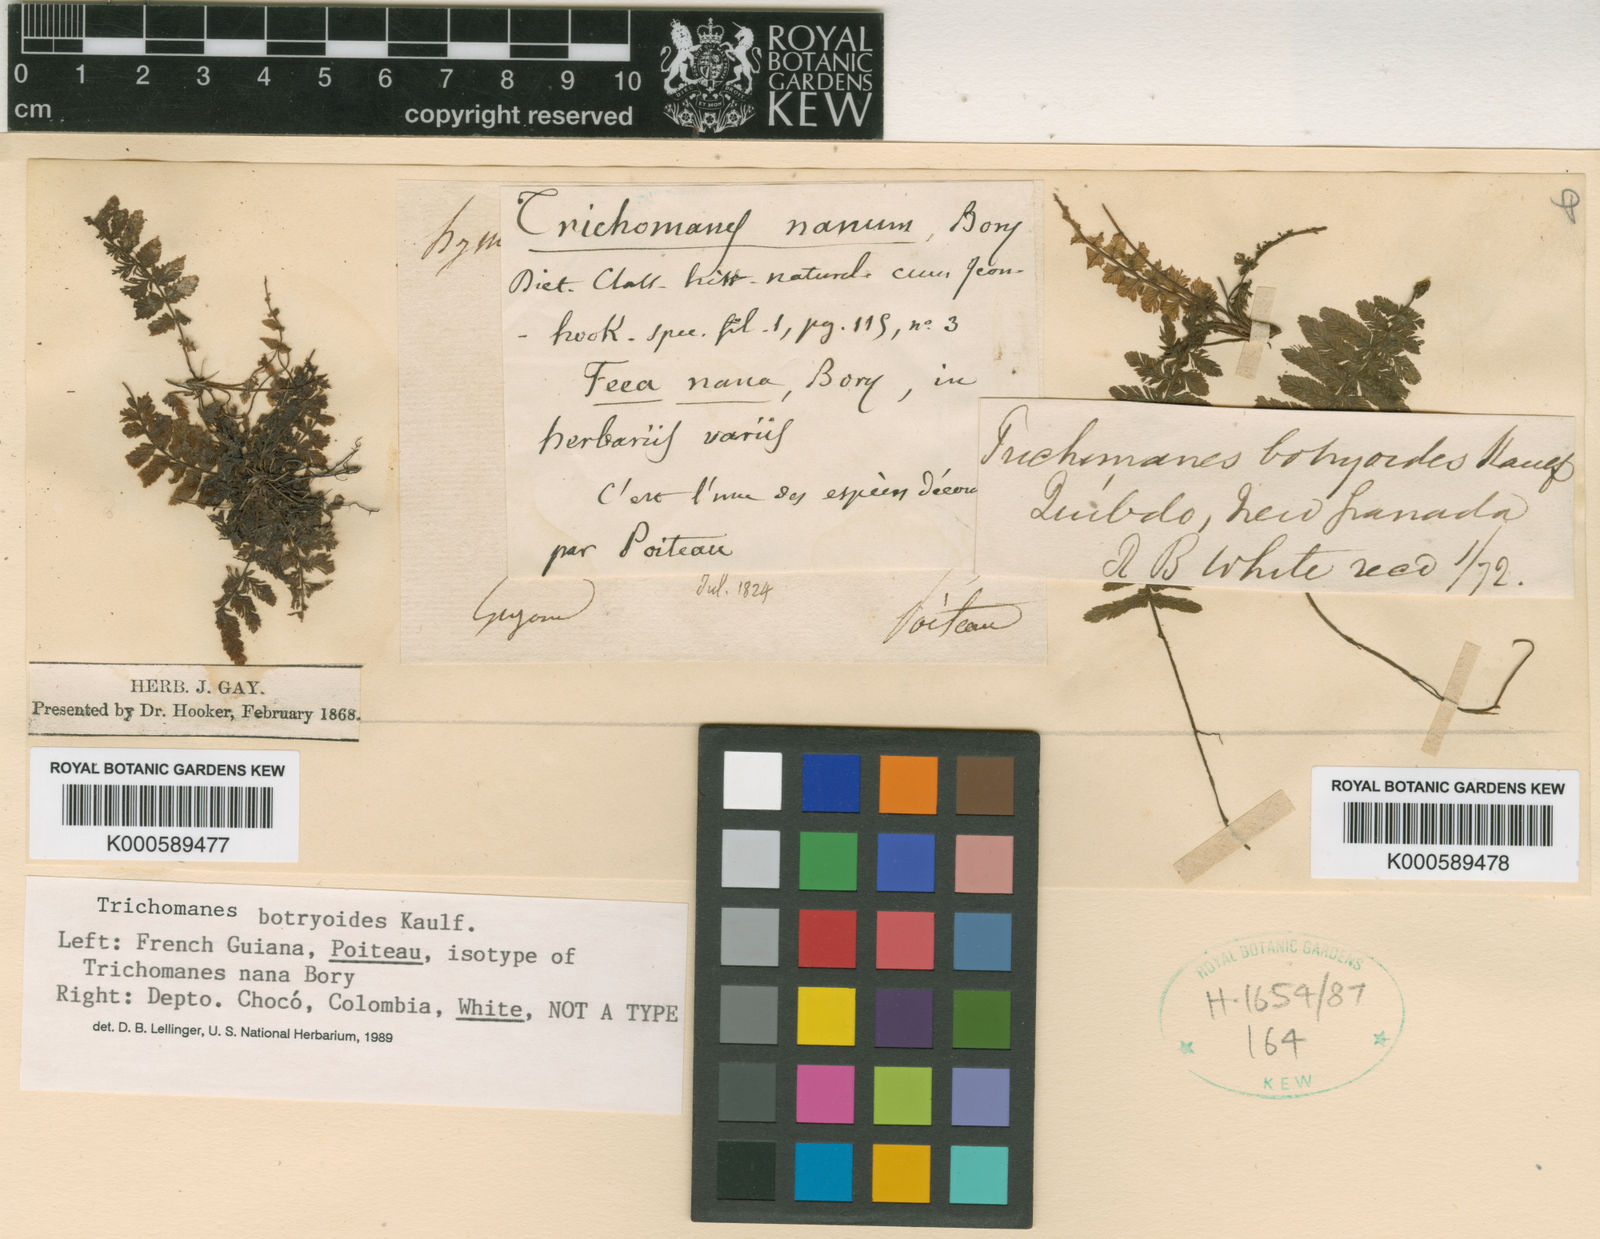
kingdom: Plantae
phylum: Tracheophyta
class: Polypodiopsida
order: Hymenophyllales
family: Hymenophyllaceae
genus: Trichomanes
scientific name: Trichomanes botryoides
